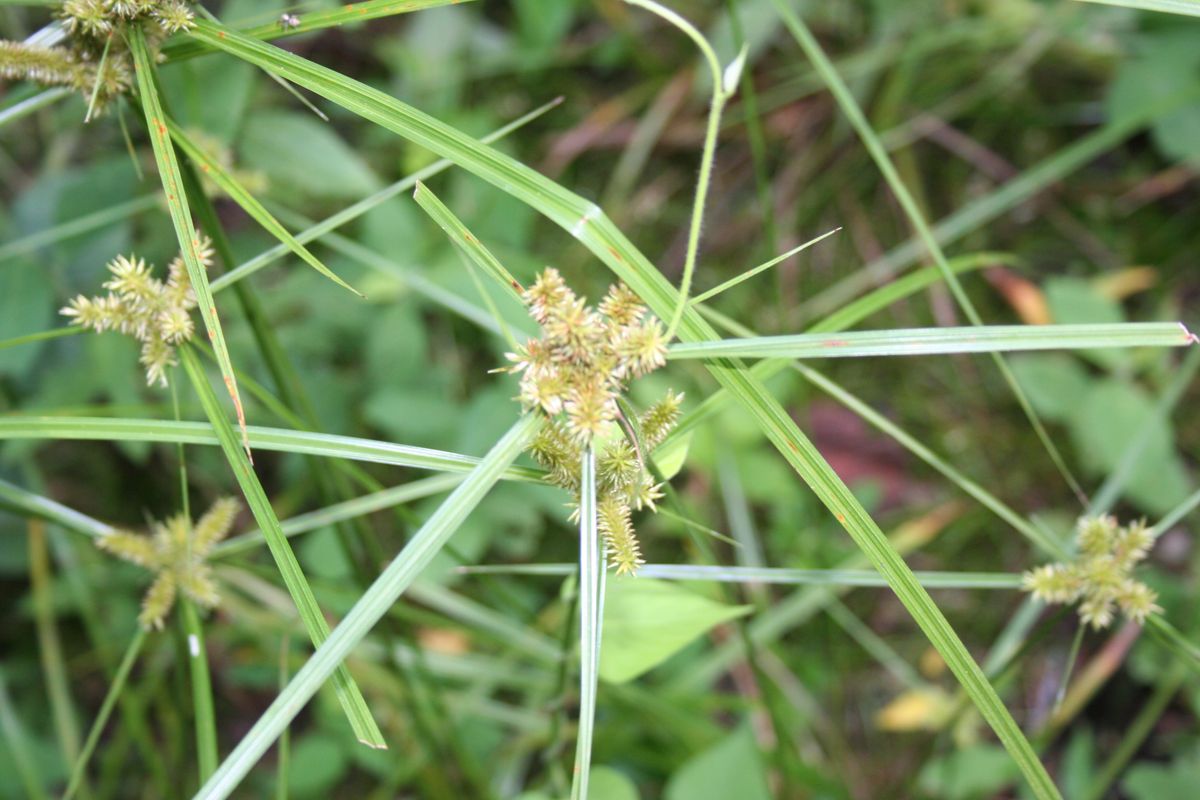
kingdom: Plantae
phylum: Tracheophyta
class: Liliopsida
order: Poales
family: Cyperaceae
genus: Cyperus
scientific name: Cyperus
